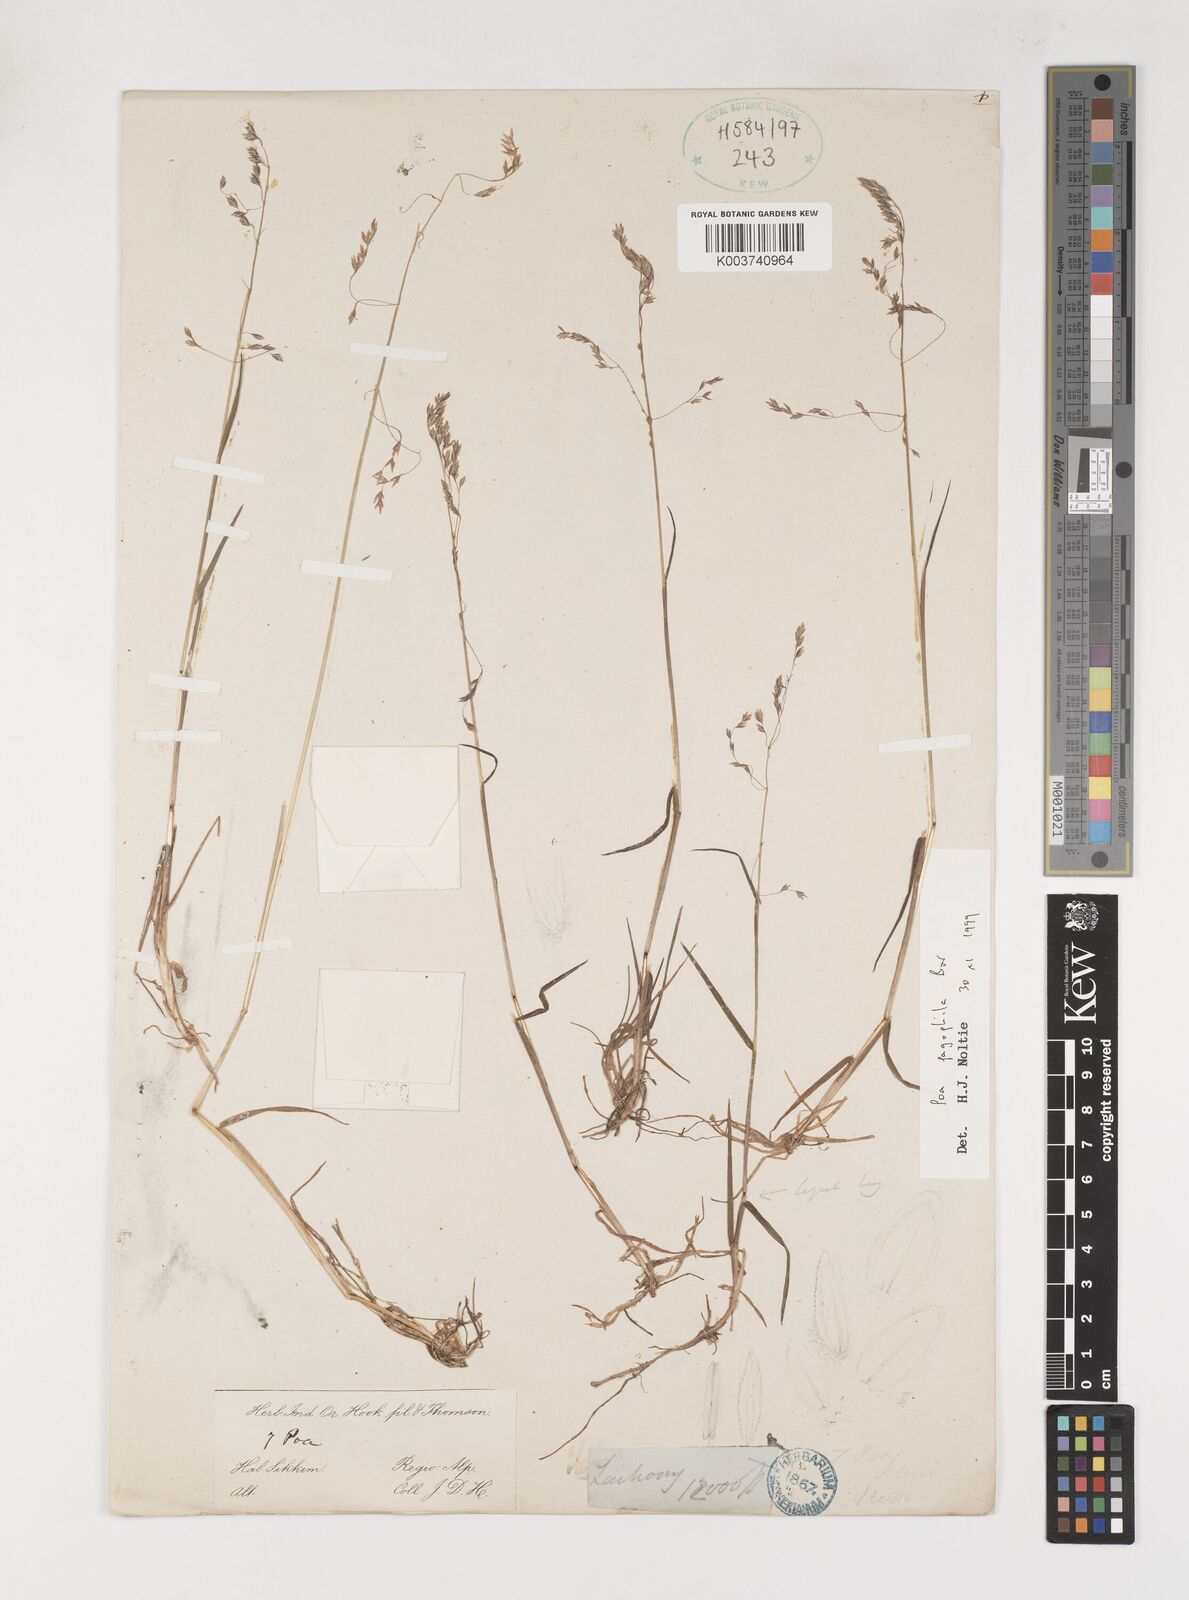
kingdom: Plantae
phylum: Tracheophyta
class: Liliopsida
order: Poales
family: Poaceae
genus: Poa
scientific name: Poa pagophila
